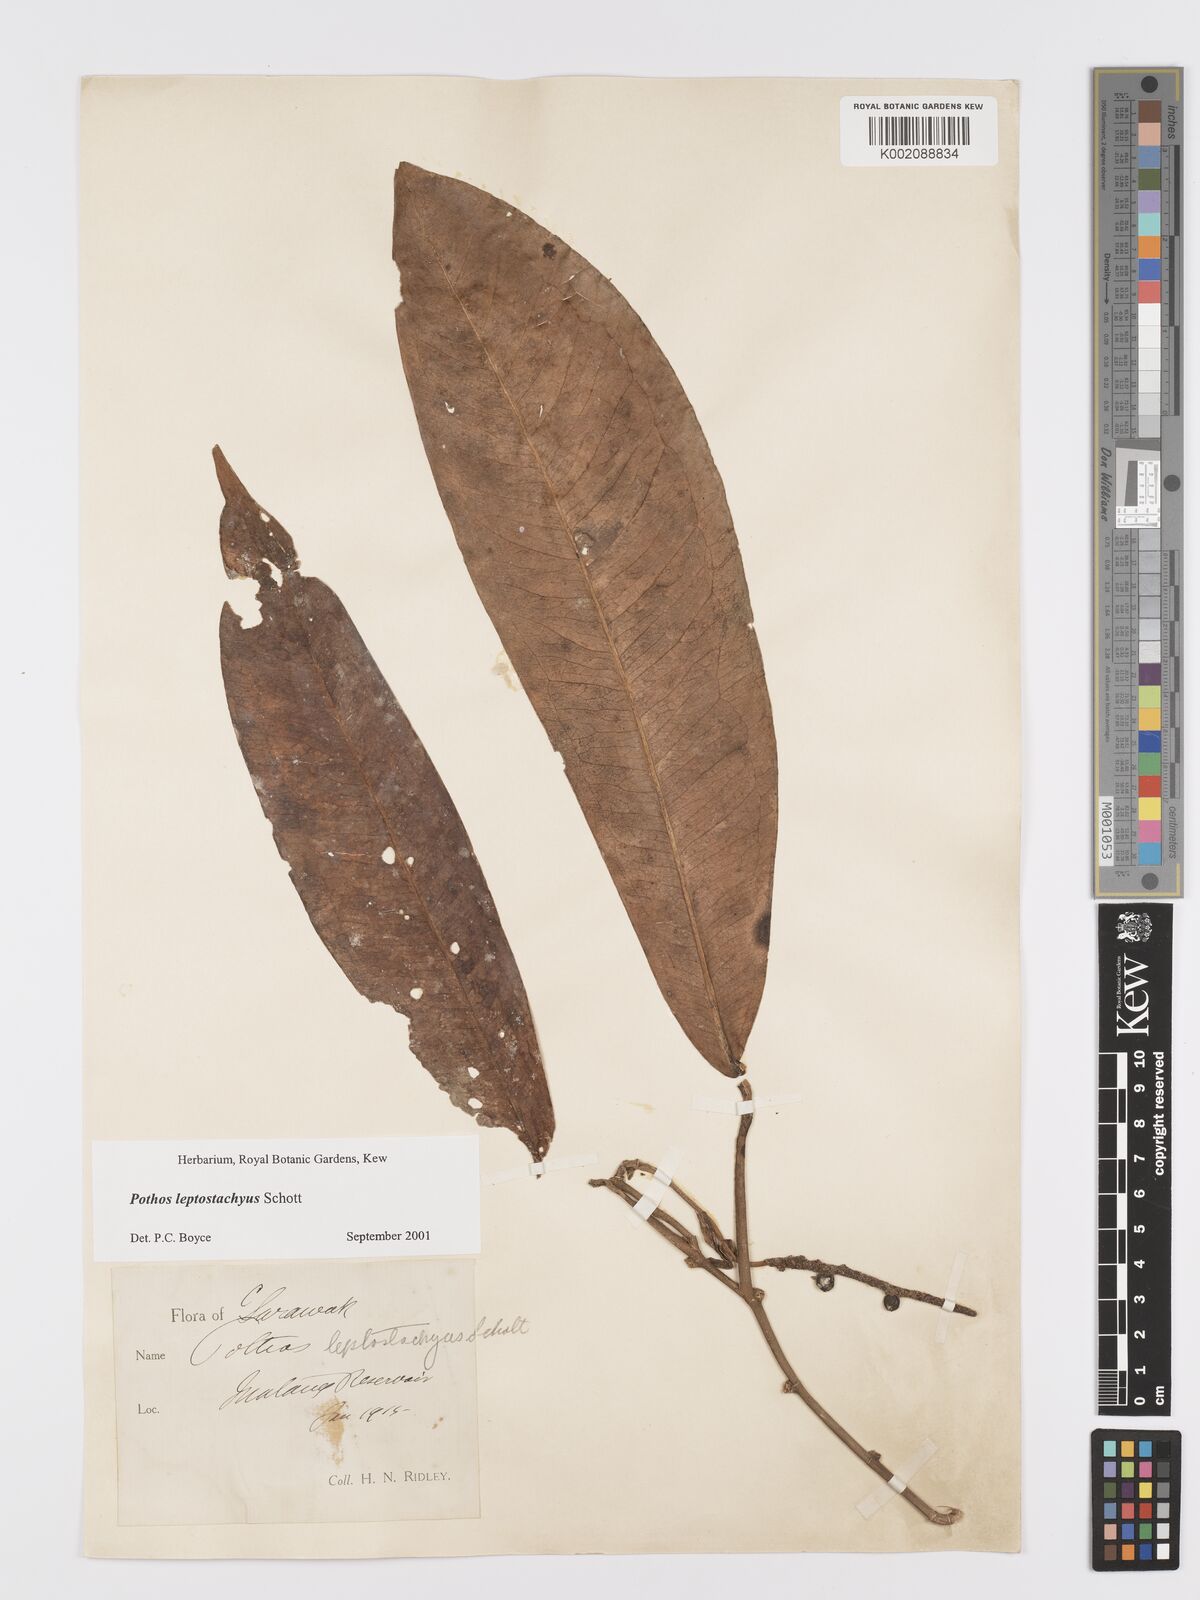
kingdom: Plantae
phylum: Tracheophyta
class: Liliopsida
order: Alismatales
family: Araceae
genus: Pothos
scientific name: Pothos leptostachyus
